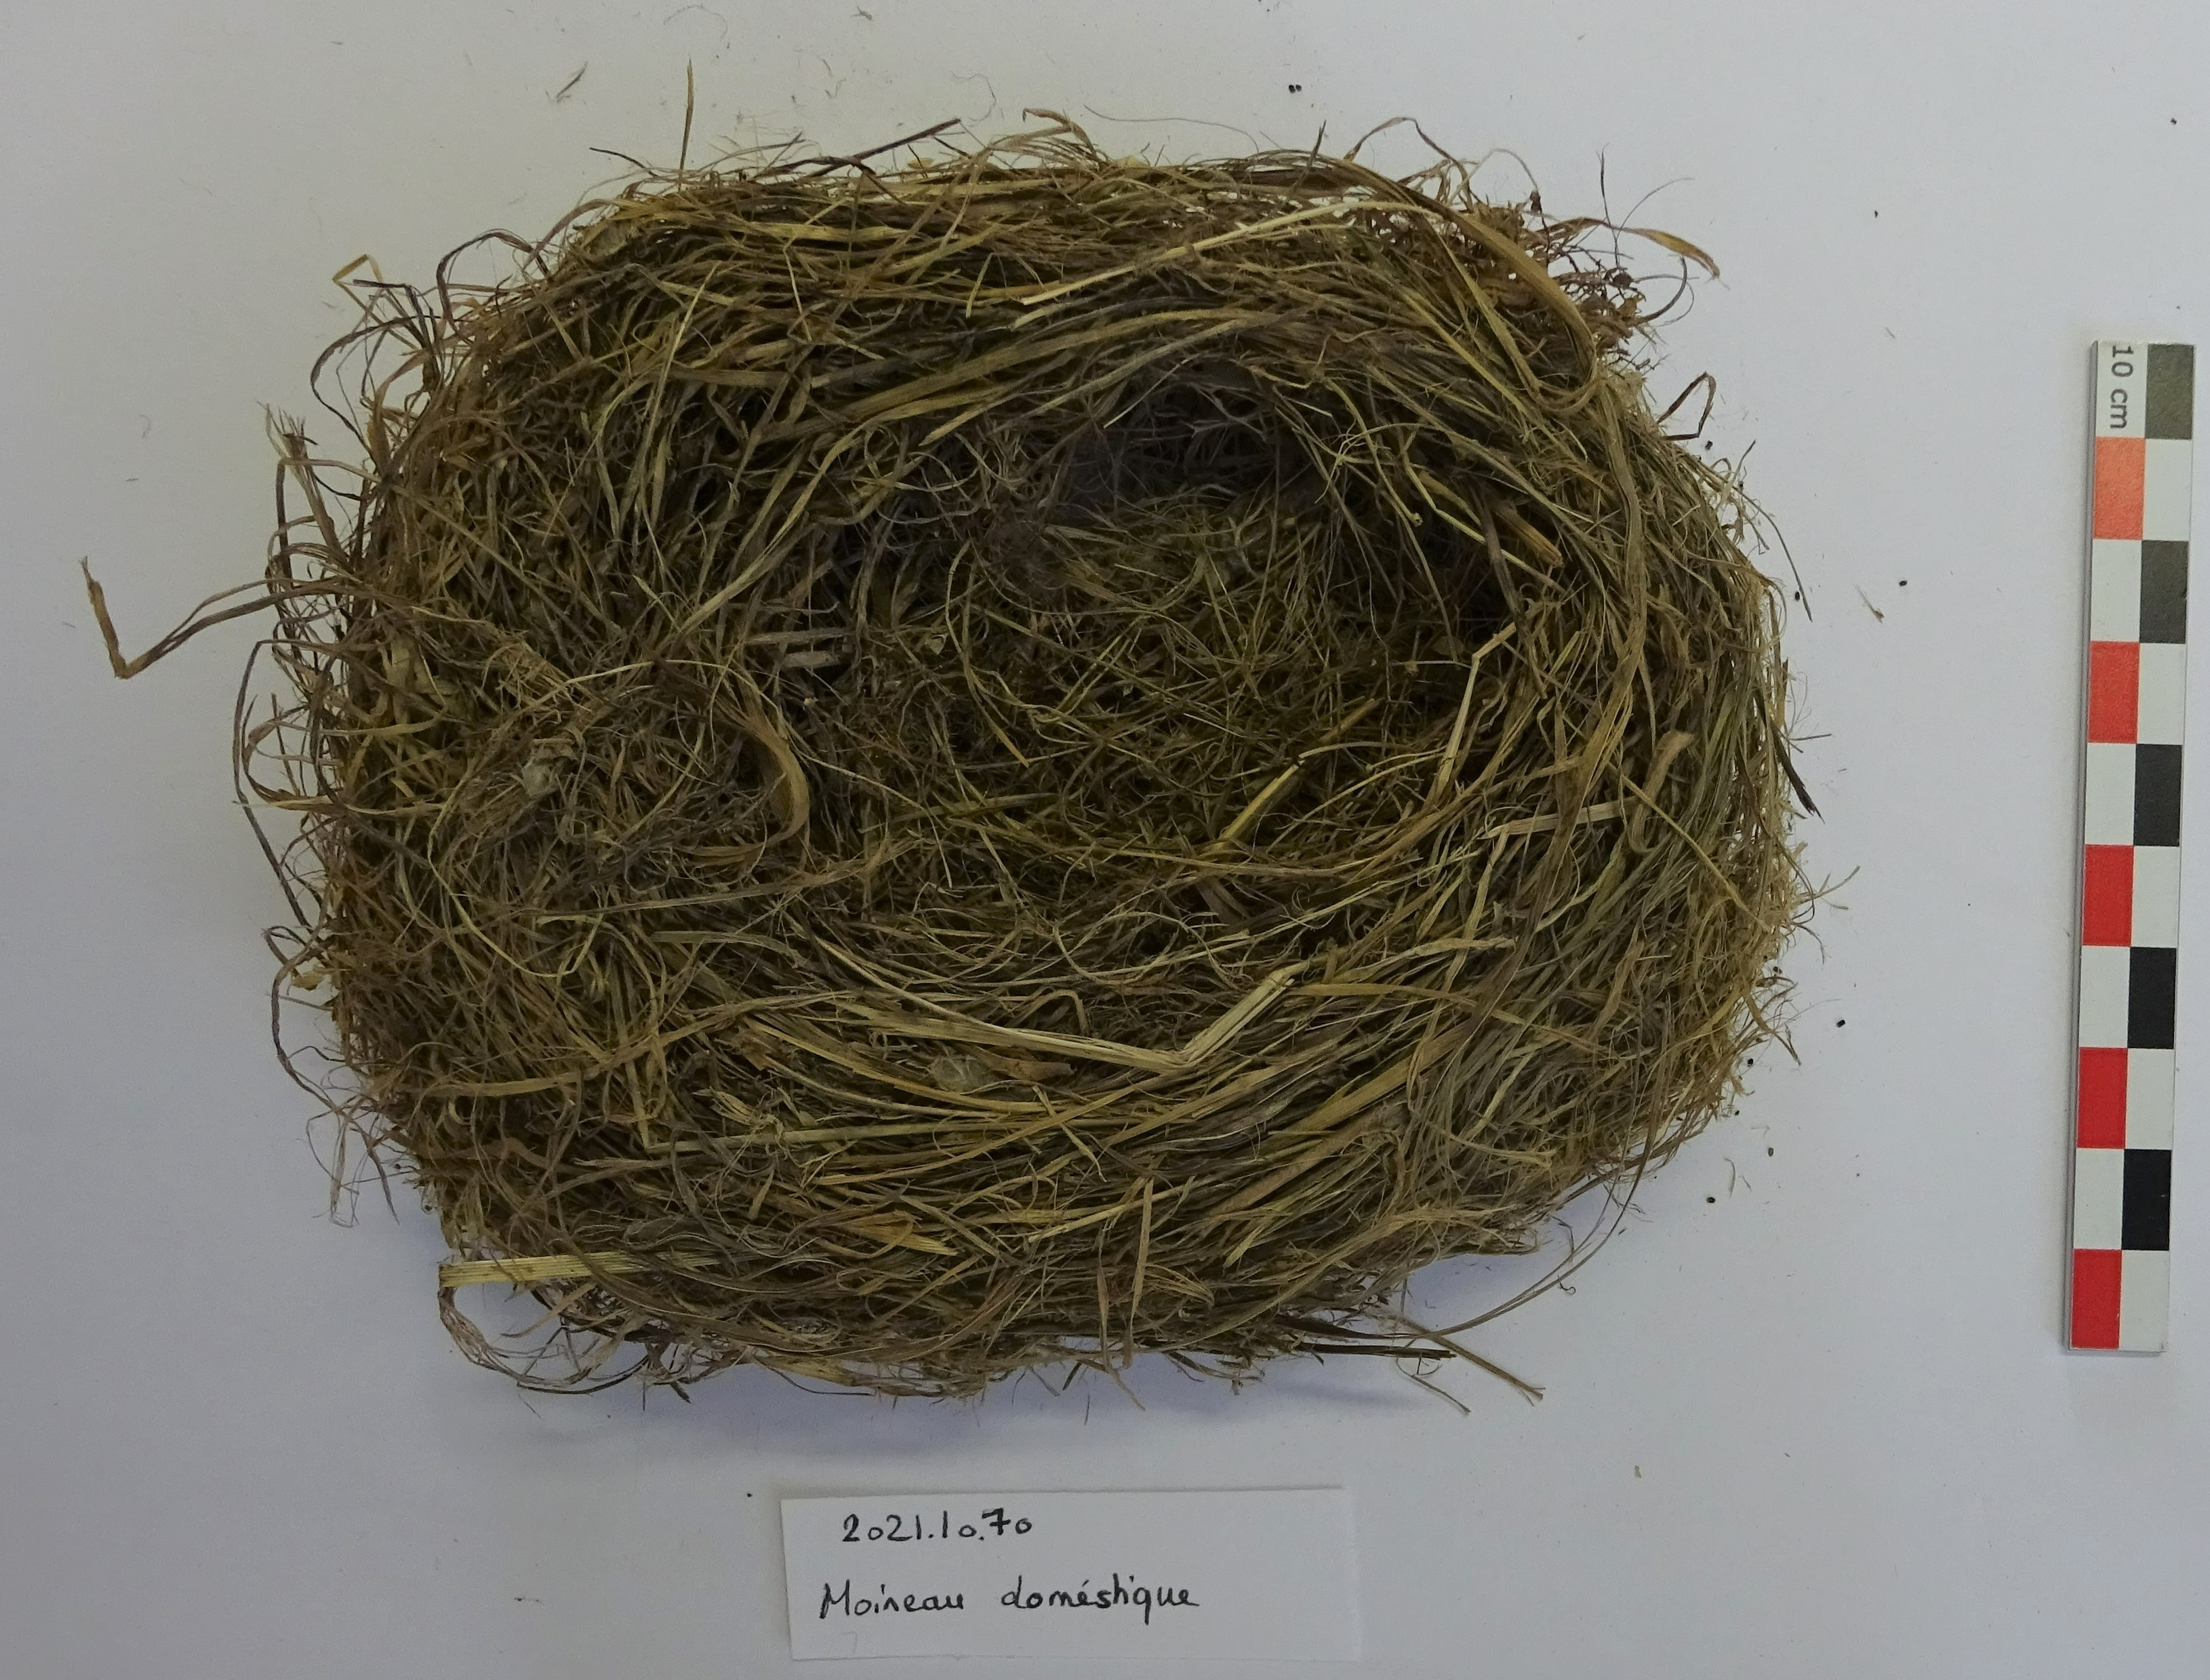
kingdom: Animalia
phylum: Chordata
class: Aves
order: Passeriformes
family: Passeridae
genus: Passer
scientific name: Passer domesticus
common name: House sparrow
